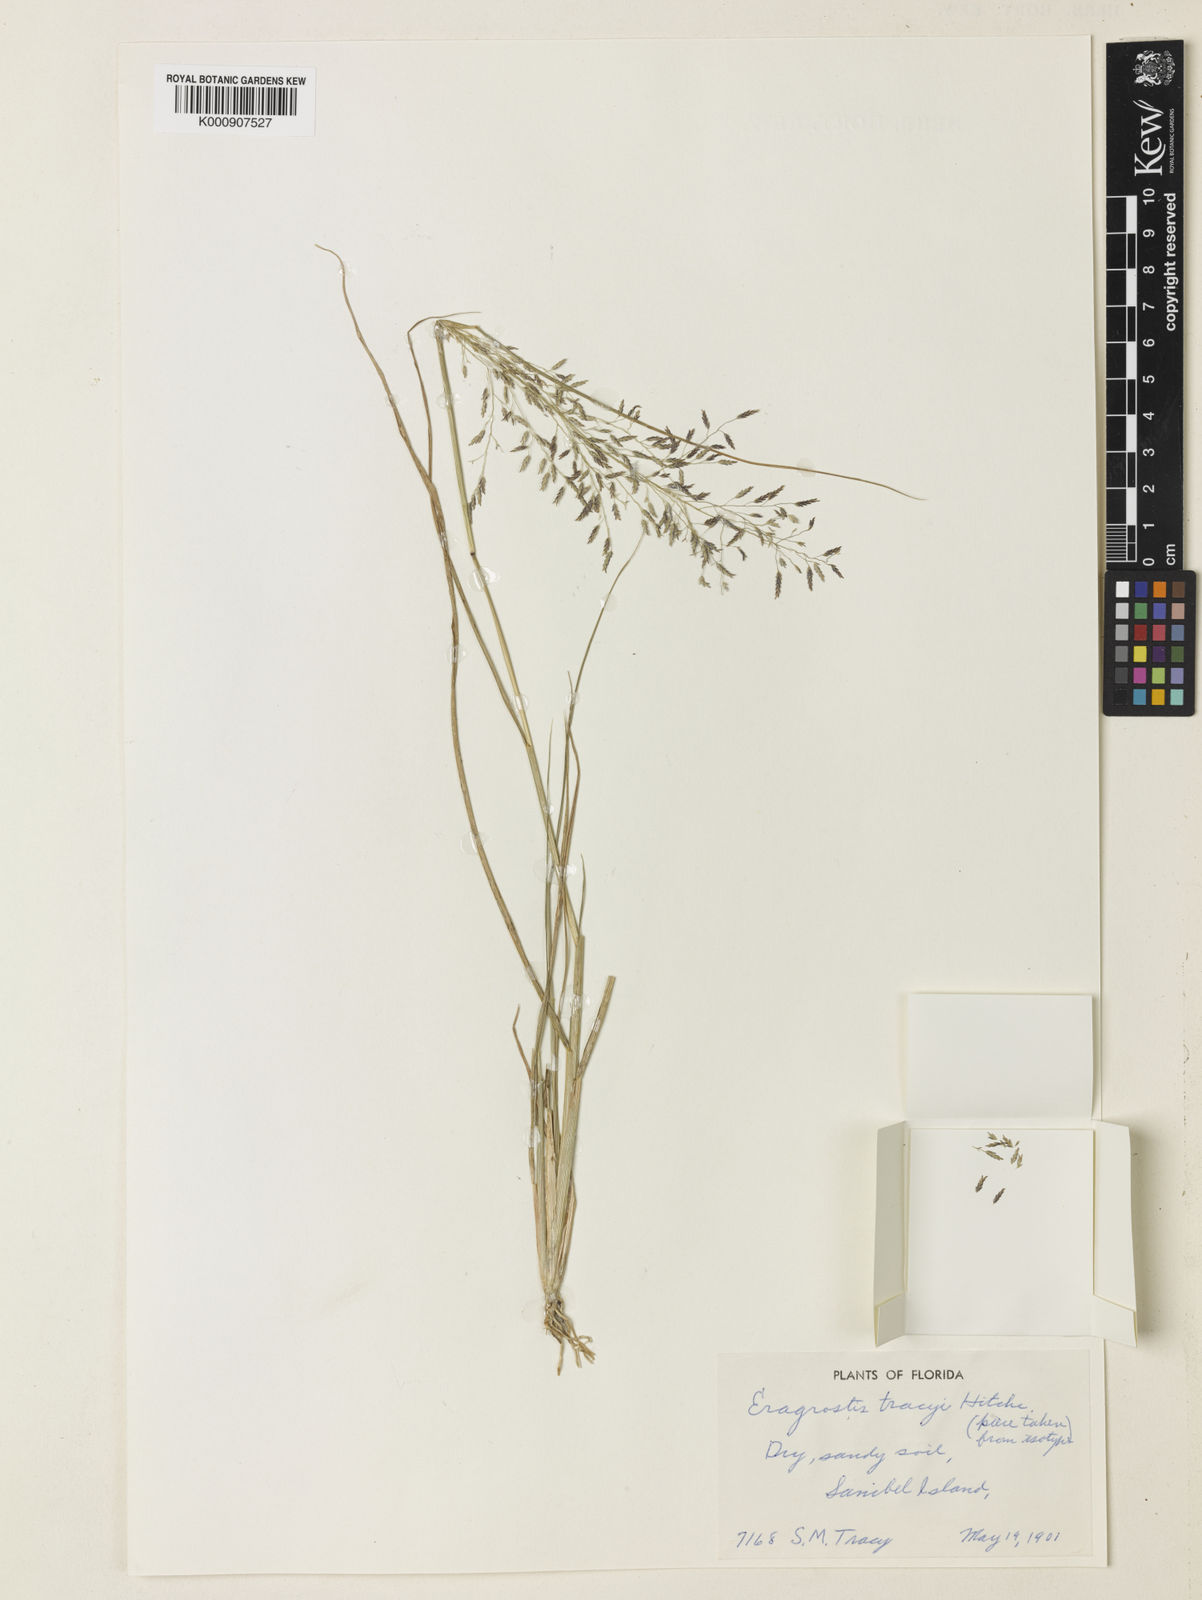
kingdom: Plantae
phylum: Tracheophyta
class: Liliopsida
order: Poales
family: Poaceae
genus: Eragrostis
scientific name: Eragrostis
